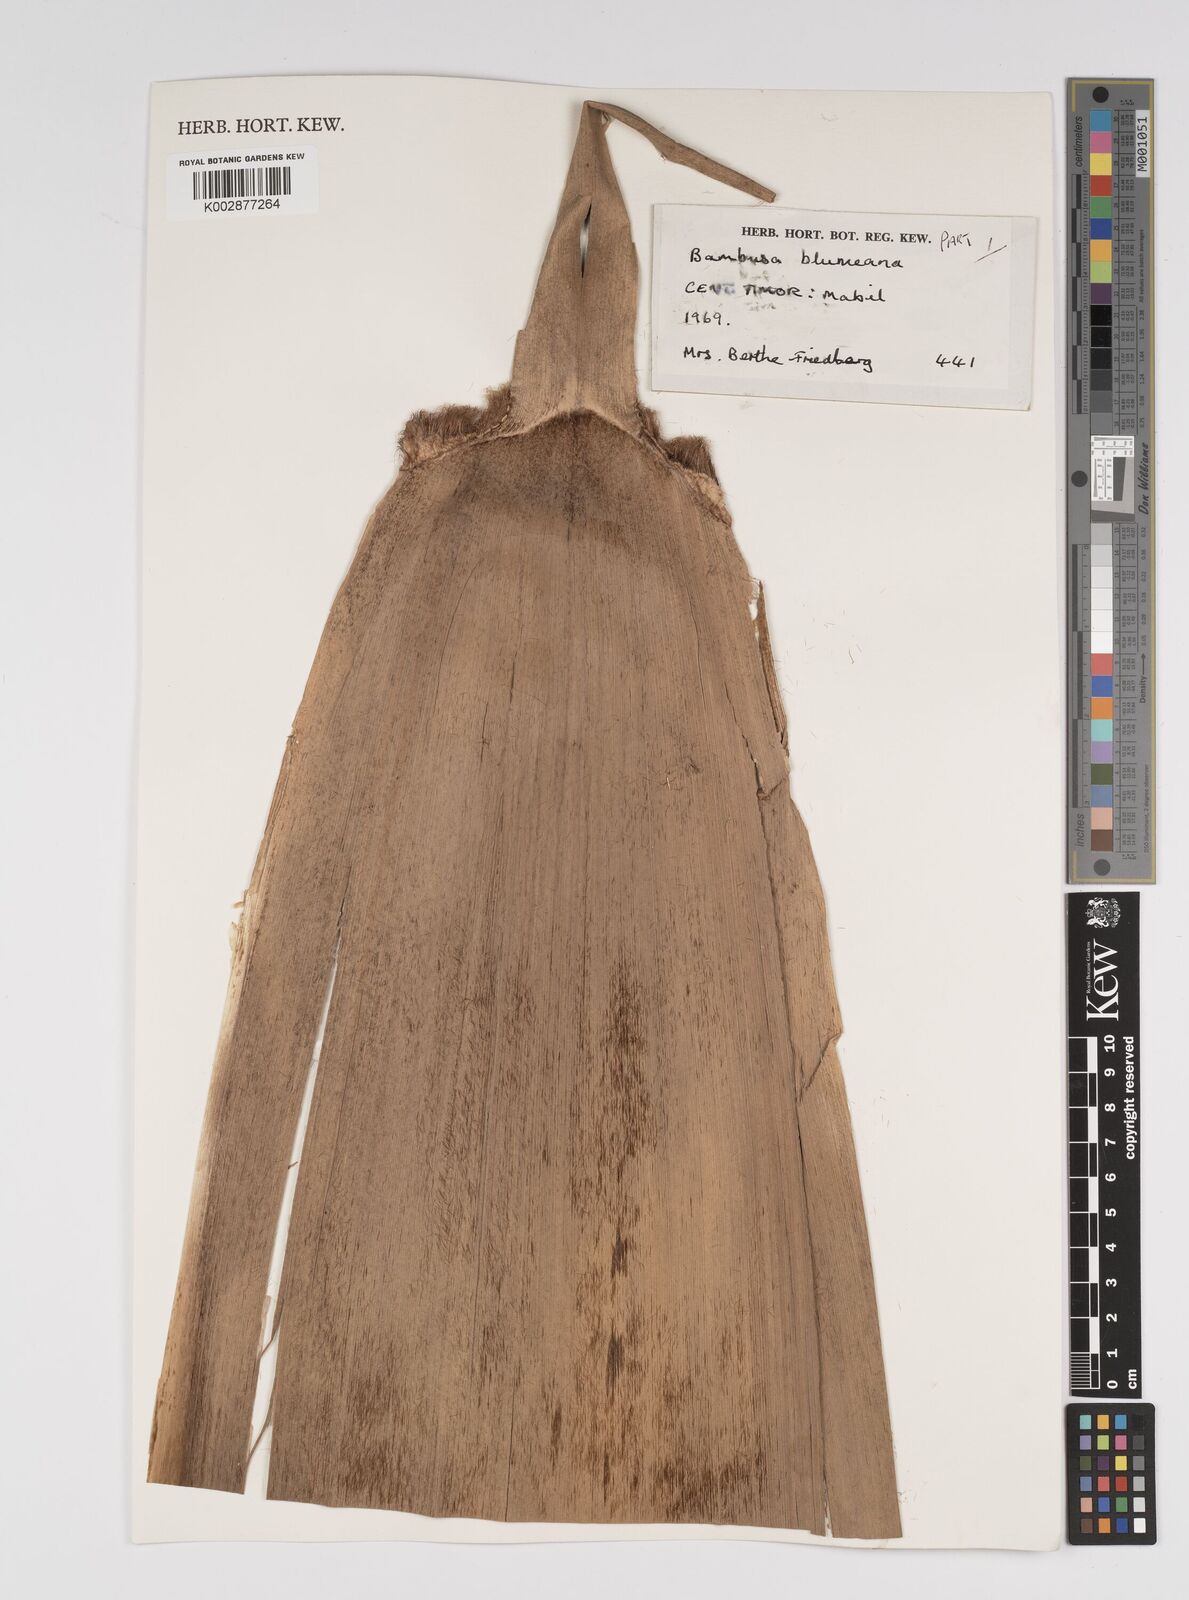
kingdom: Plantae
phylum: Tracheophyta
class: Liliopsida
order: Poales
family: Poaceae
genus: Bambusa
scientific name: Bambusa
